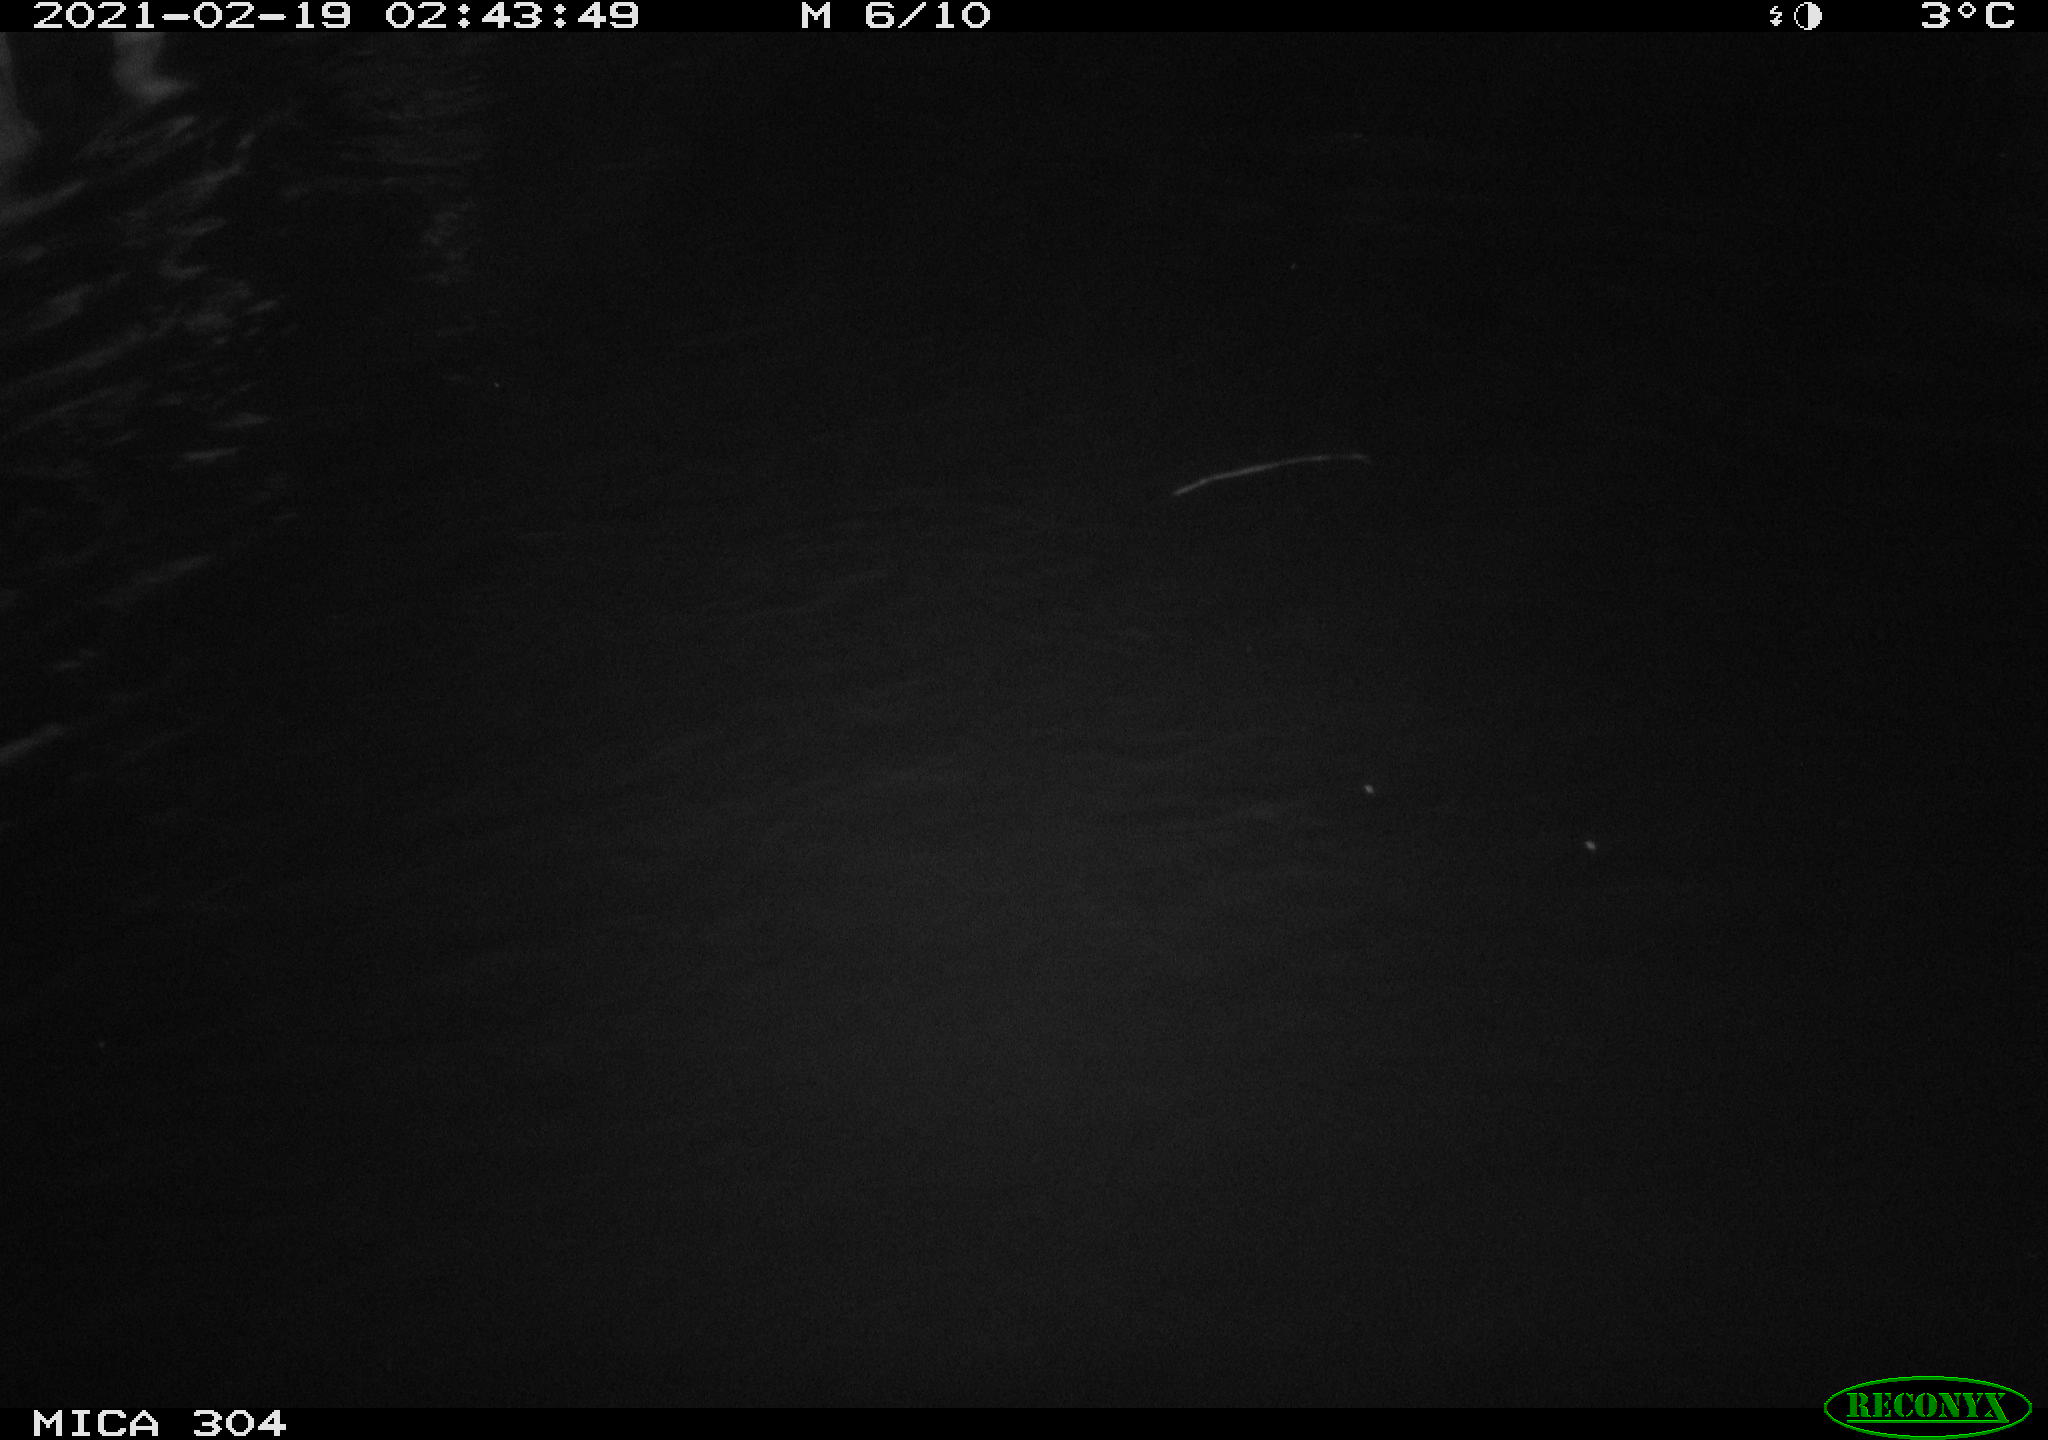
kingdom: Animalia
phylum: Chordata
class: Mammalia
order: Rodentia
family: Cricetidae
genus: Ondatra
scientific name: Ondatra zibethicus
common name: Muskrat
